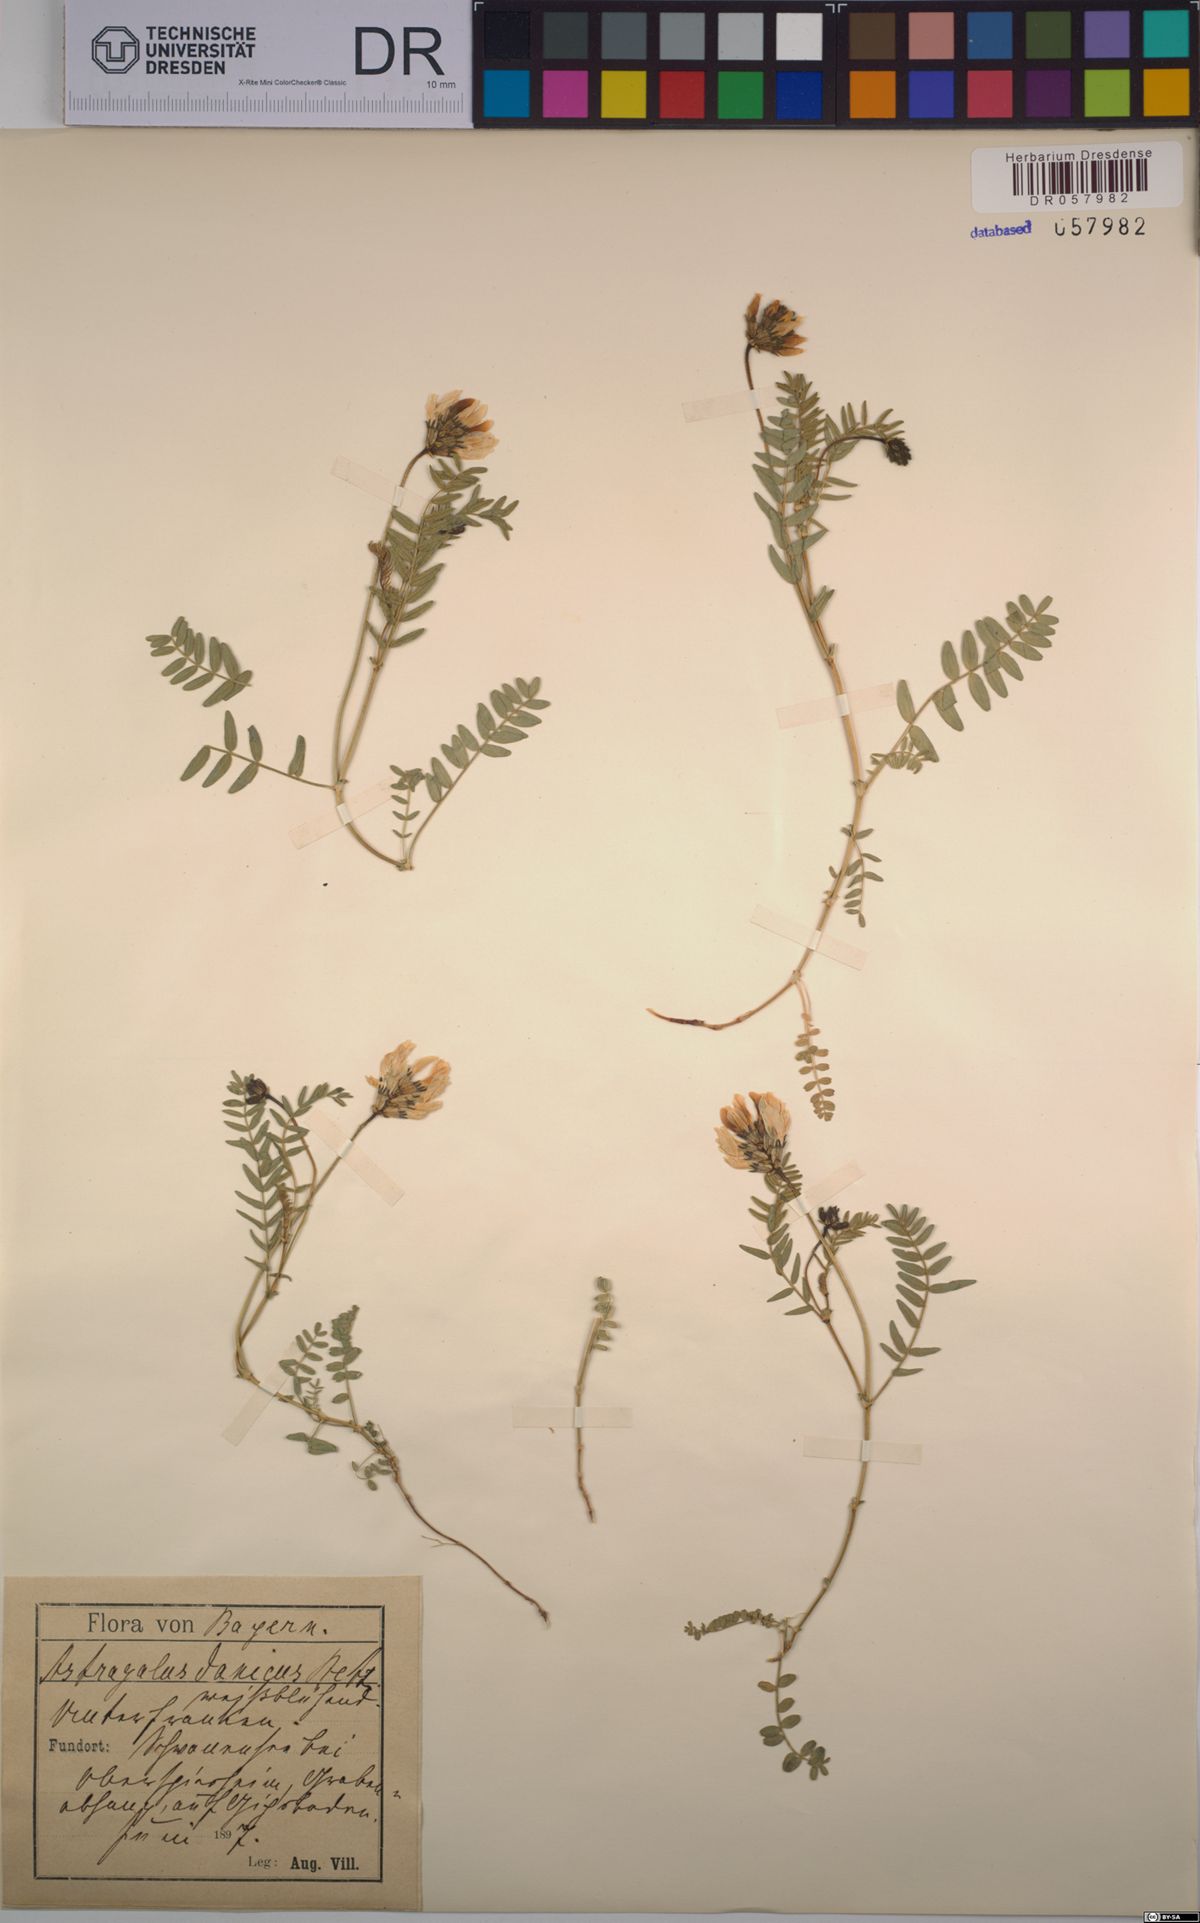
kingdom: Plantae
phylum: Tracheophyta
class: Magnoliopsida
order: Fabales
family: Fabaceae
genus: Astragalus
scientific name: Astragalus danicus
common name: Purple milk-vetch
